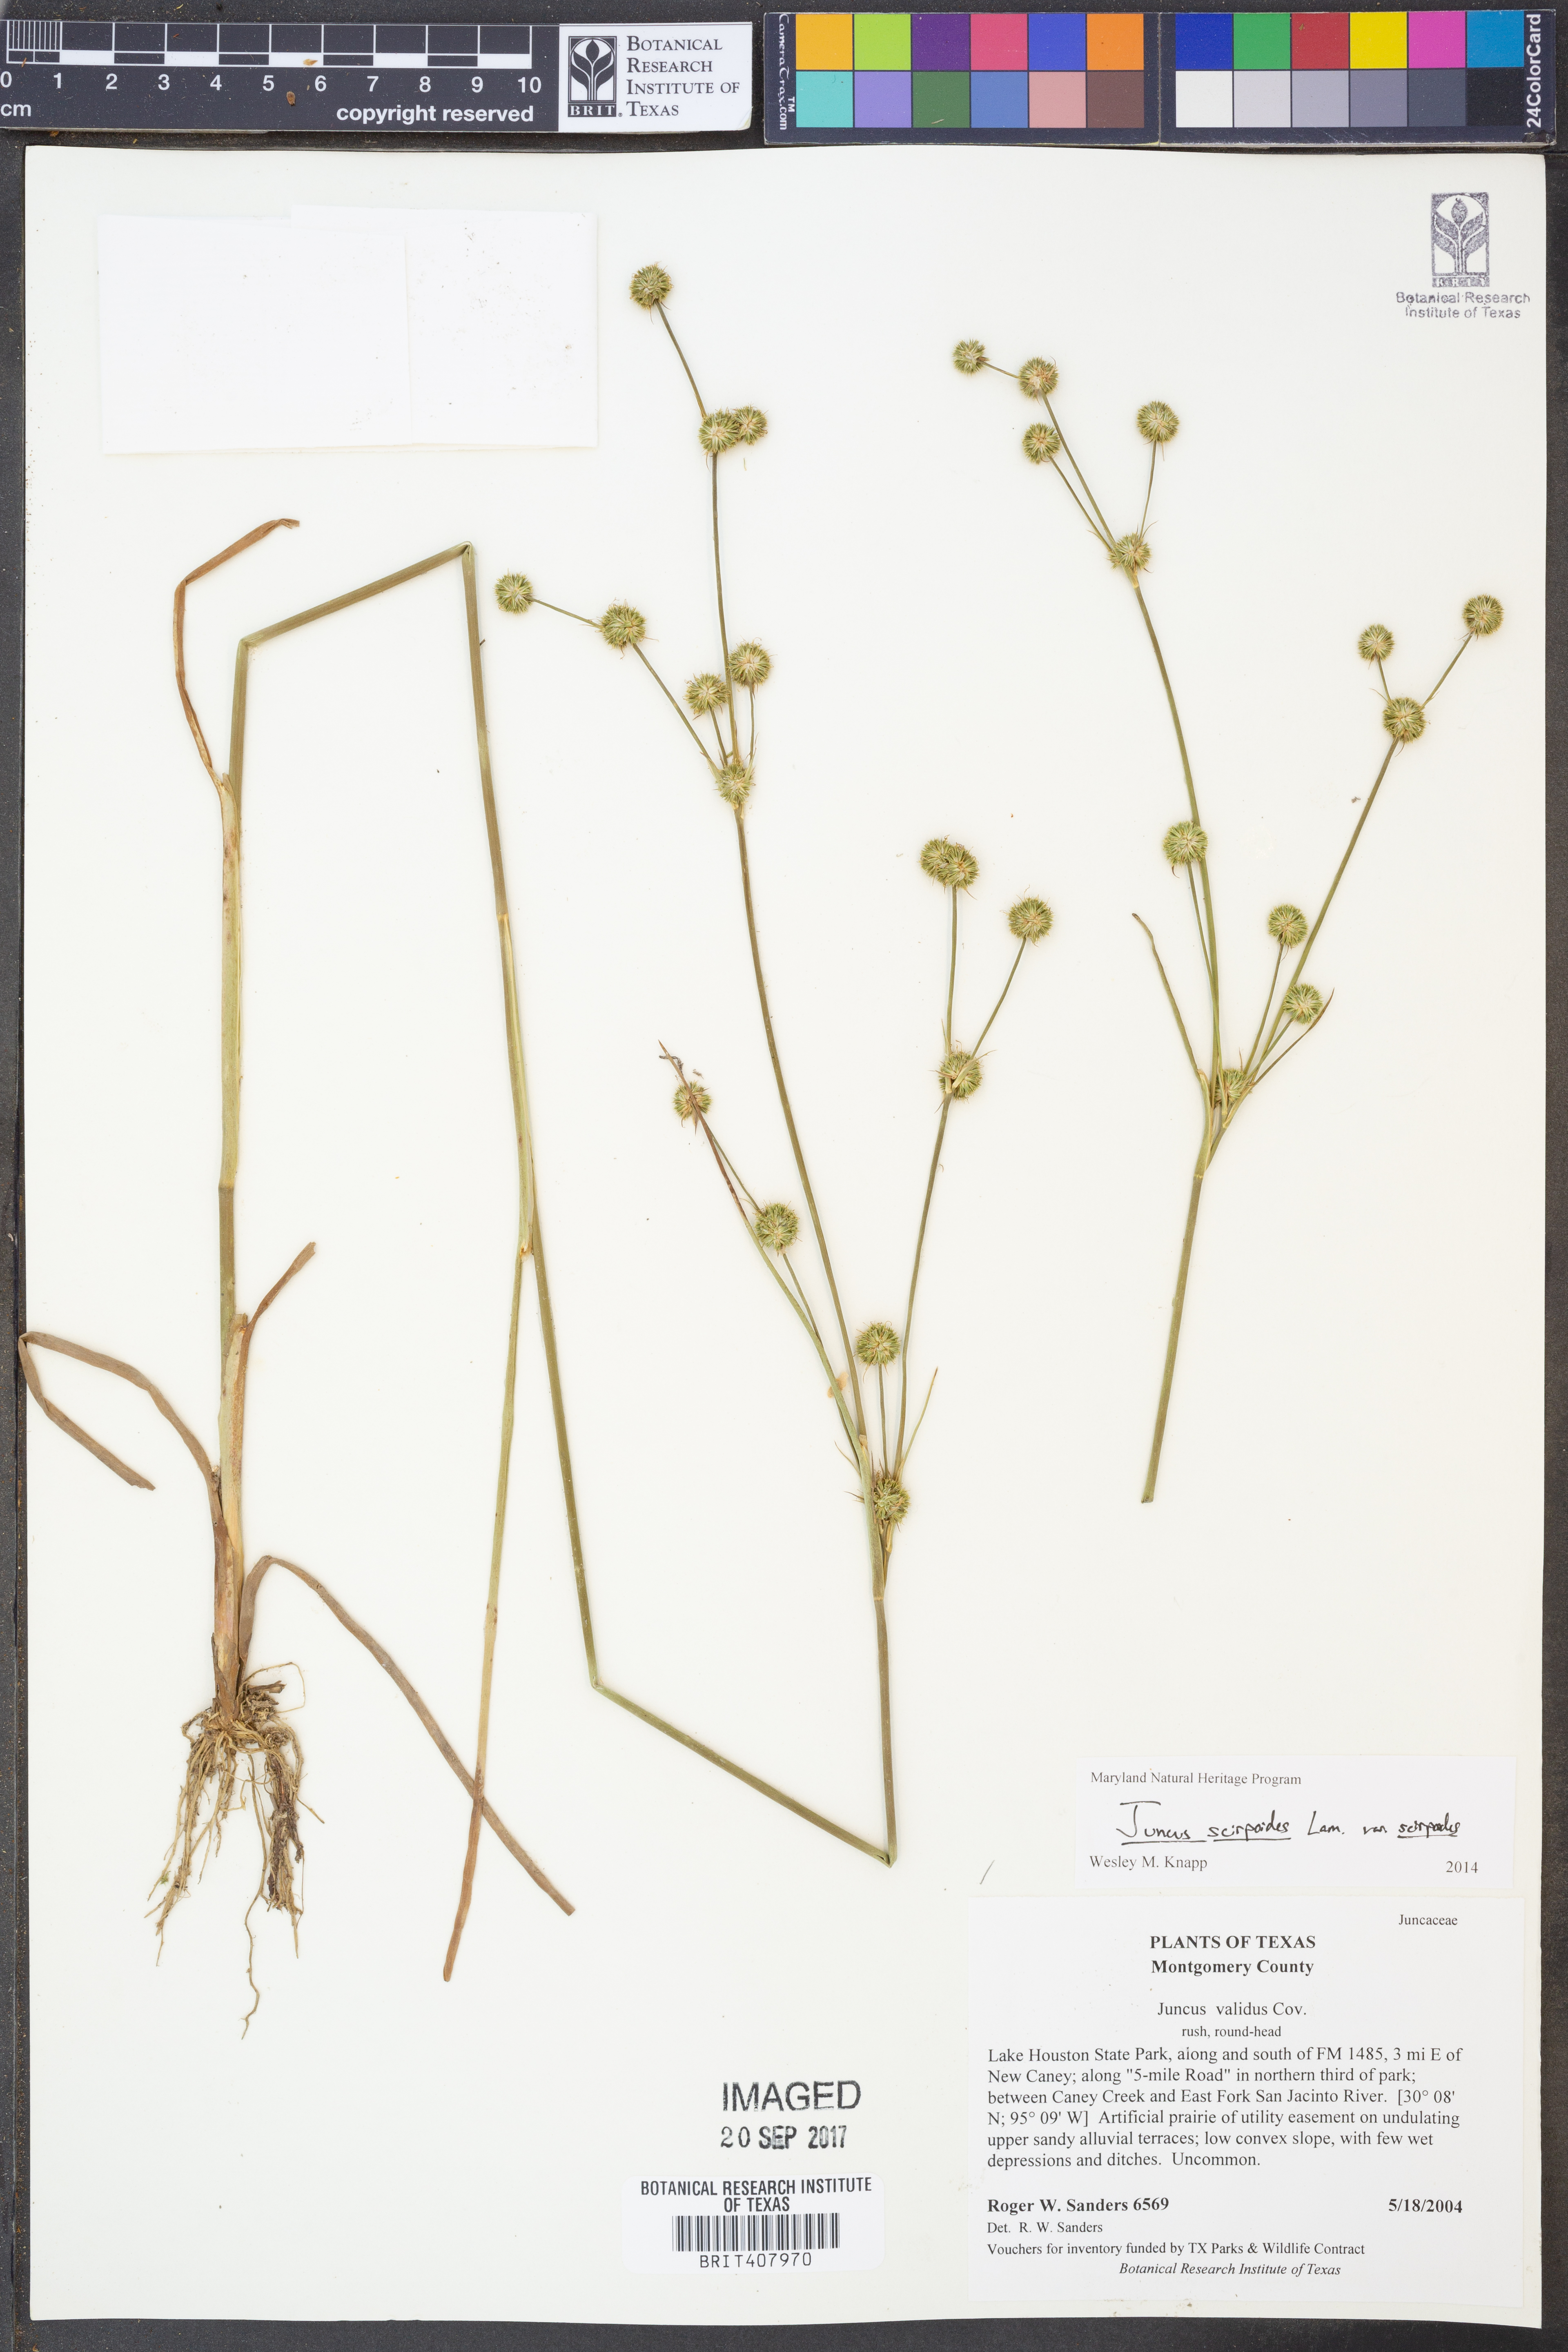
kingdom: Plantae
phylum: Tracheophyta
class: Liliopsida
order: Poales
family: Juncaceae
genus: Juncus
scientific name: Juncus scirpoides
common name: Needlepod rush
